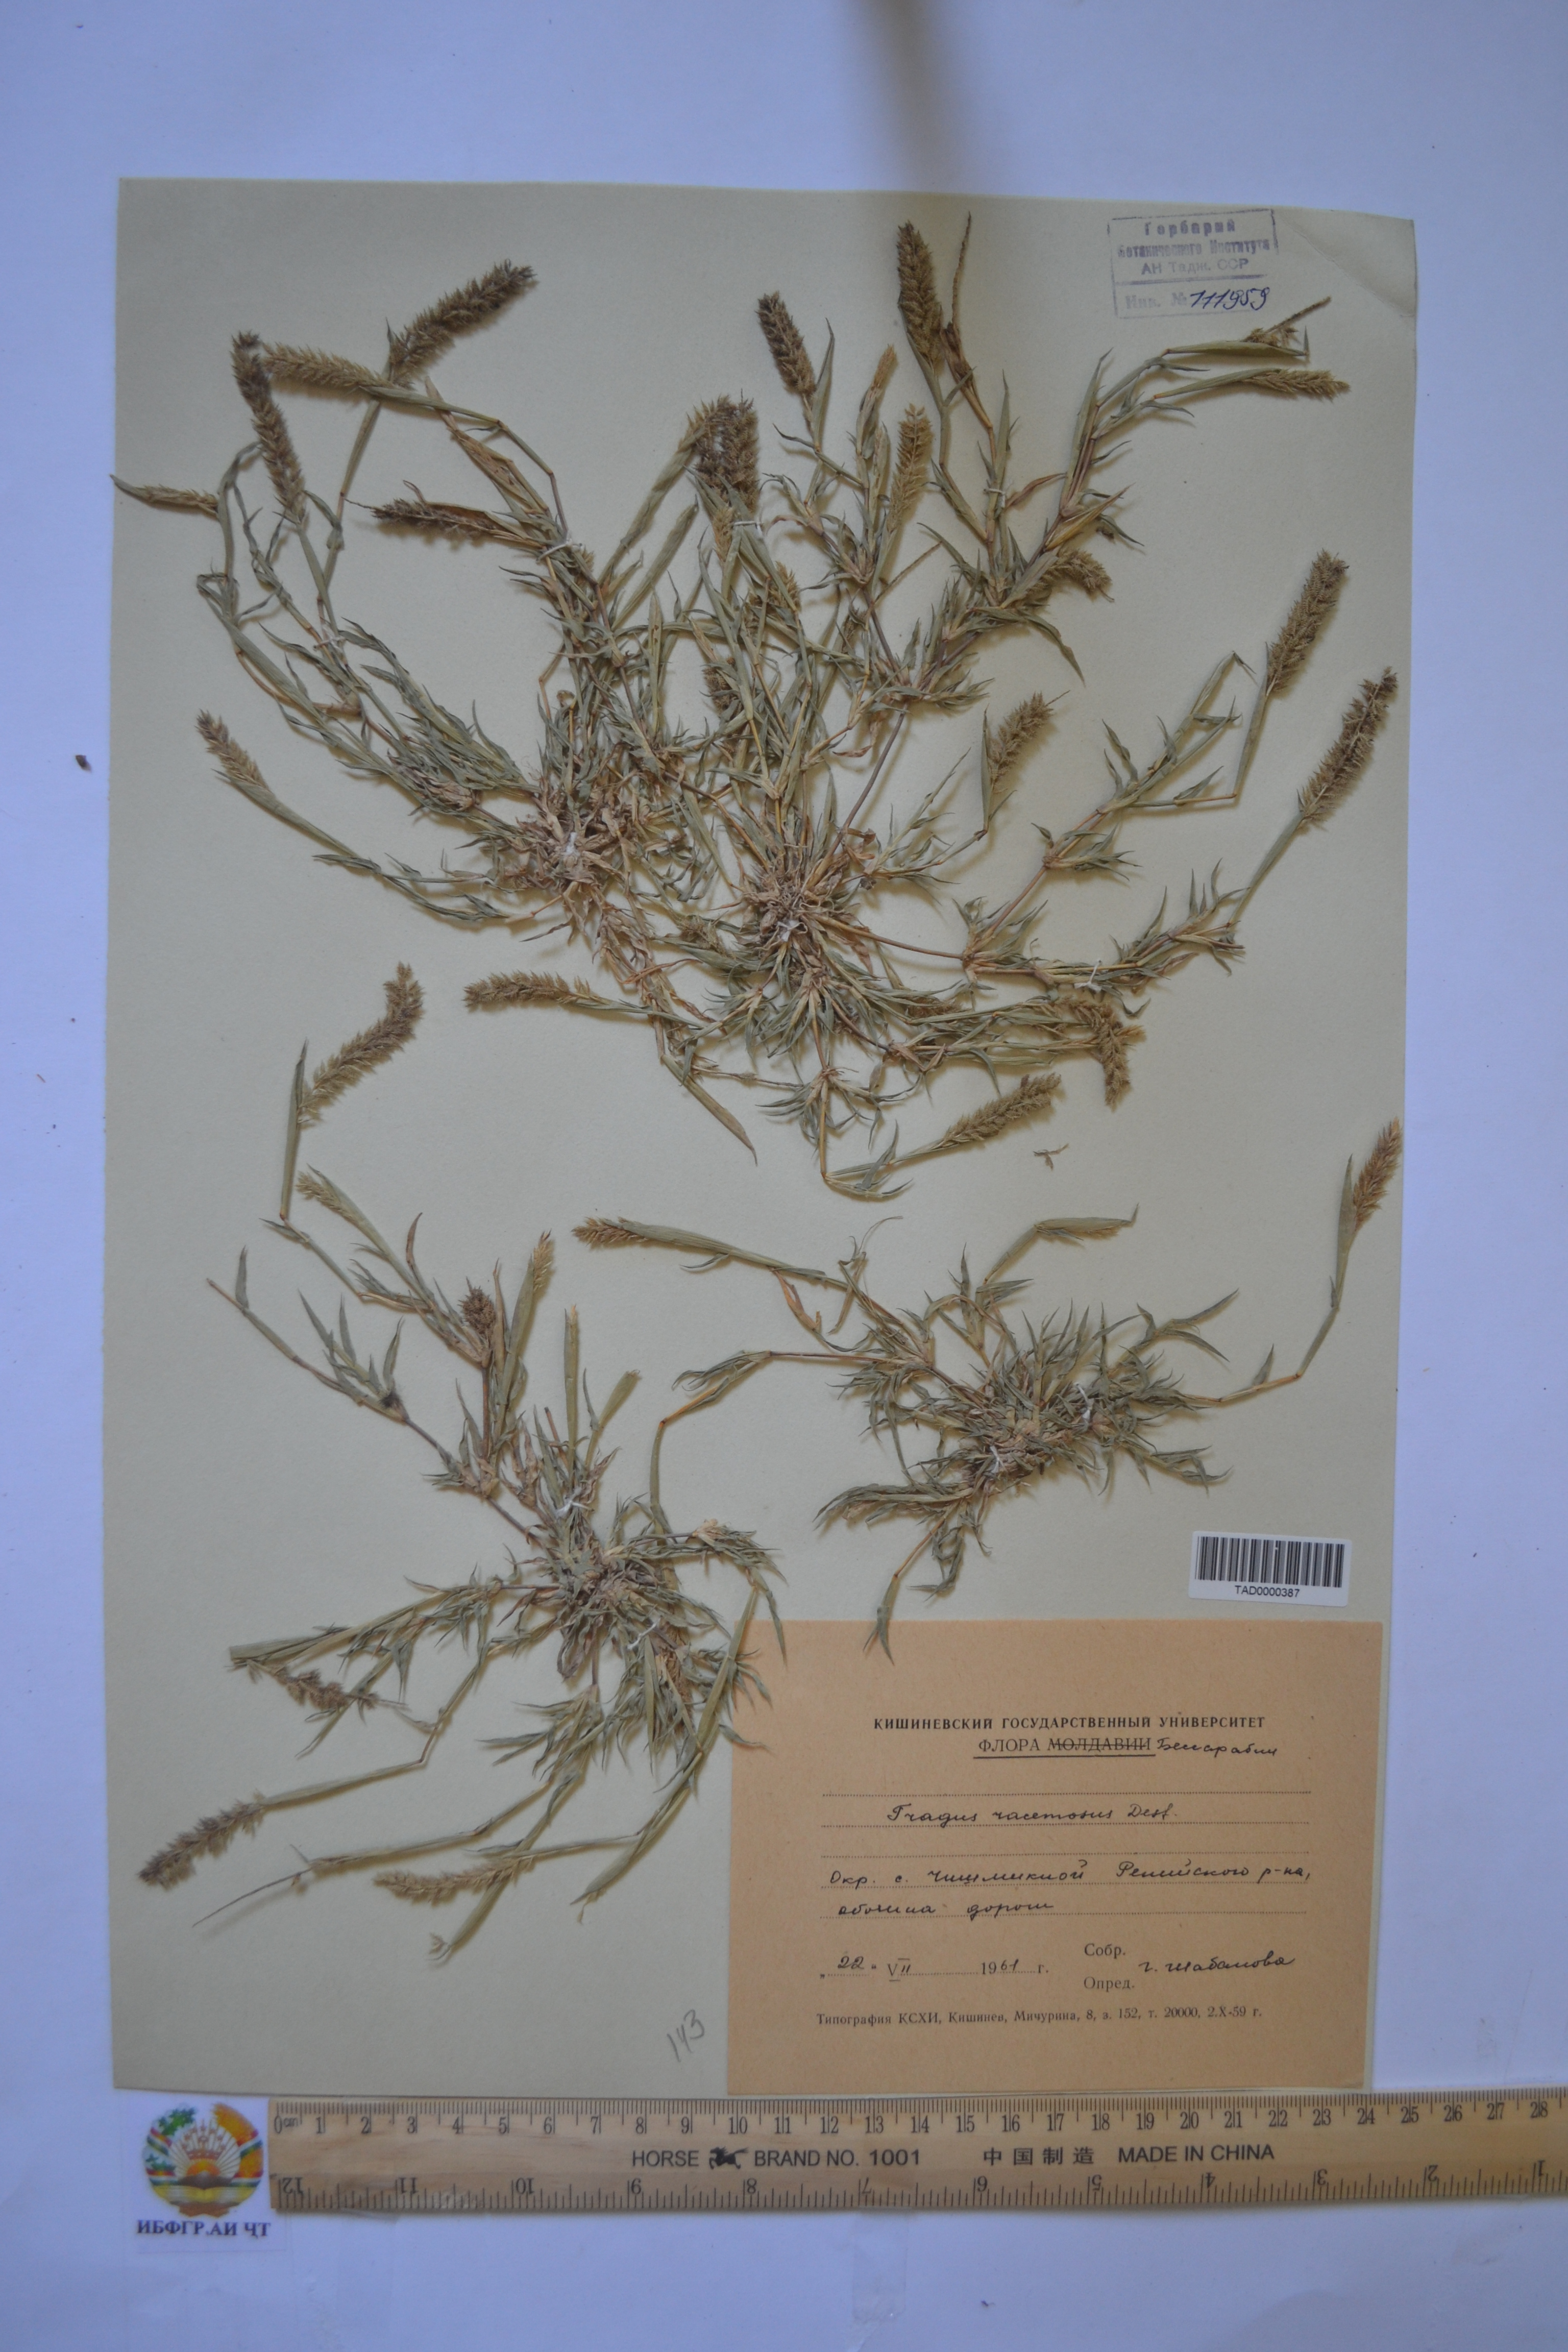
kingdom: Plantae
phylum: Tracheophyta
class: Liliopsida
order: Poales
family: Poaceae
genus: Tragus
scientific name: Tragus racemosus
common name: European bur-grass
